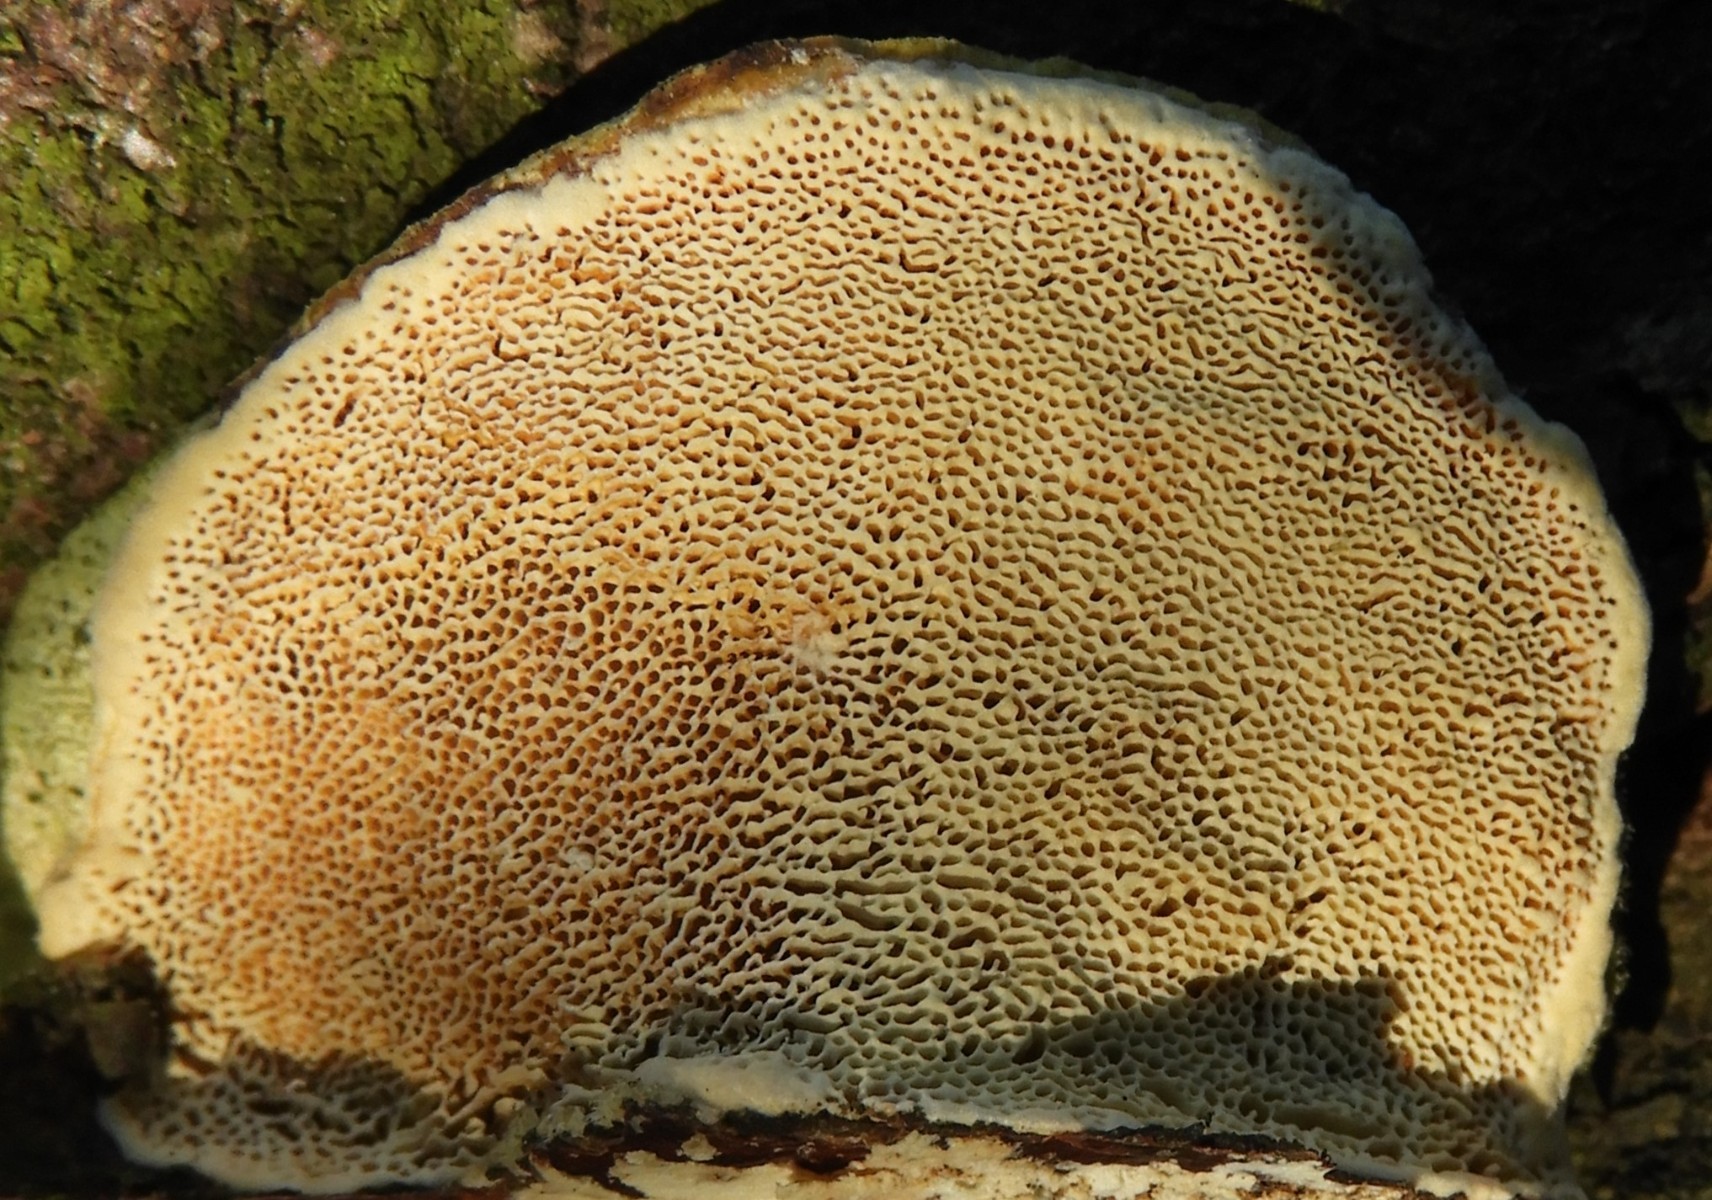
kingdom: Fungi
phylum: Basidiomycota
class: Agaricomycetes
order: Polyporales
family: Polyporaceae
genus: Trametes
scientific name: Trametes hirsuta
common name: håret læderporesvamp
